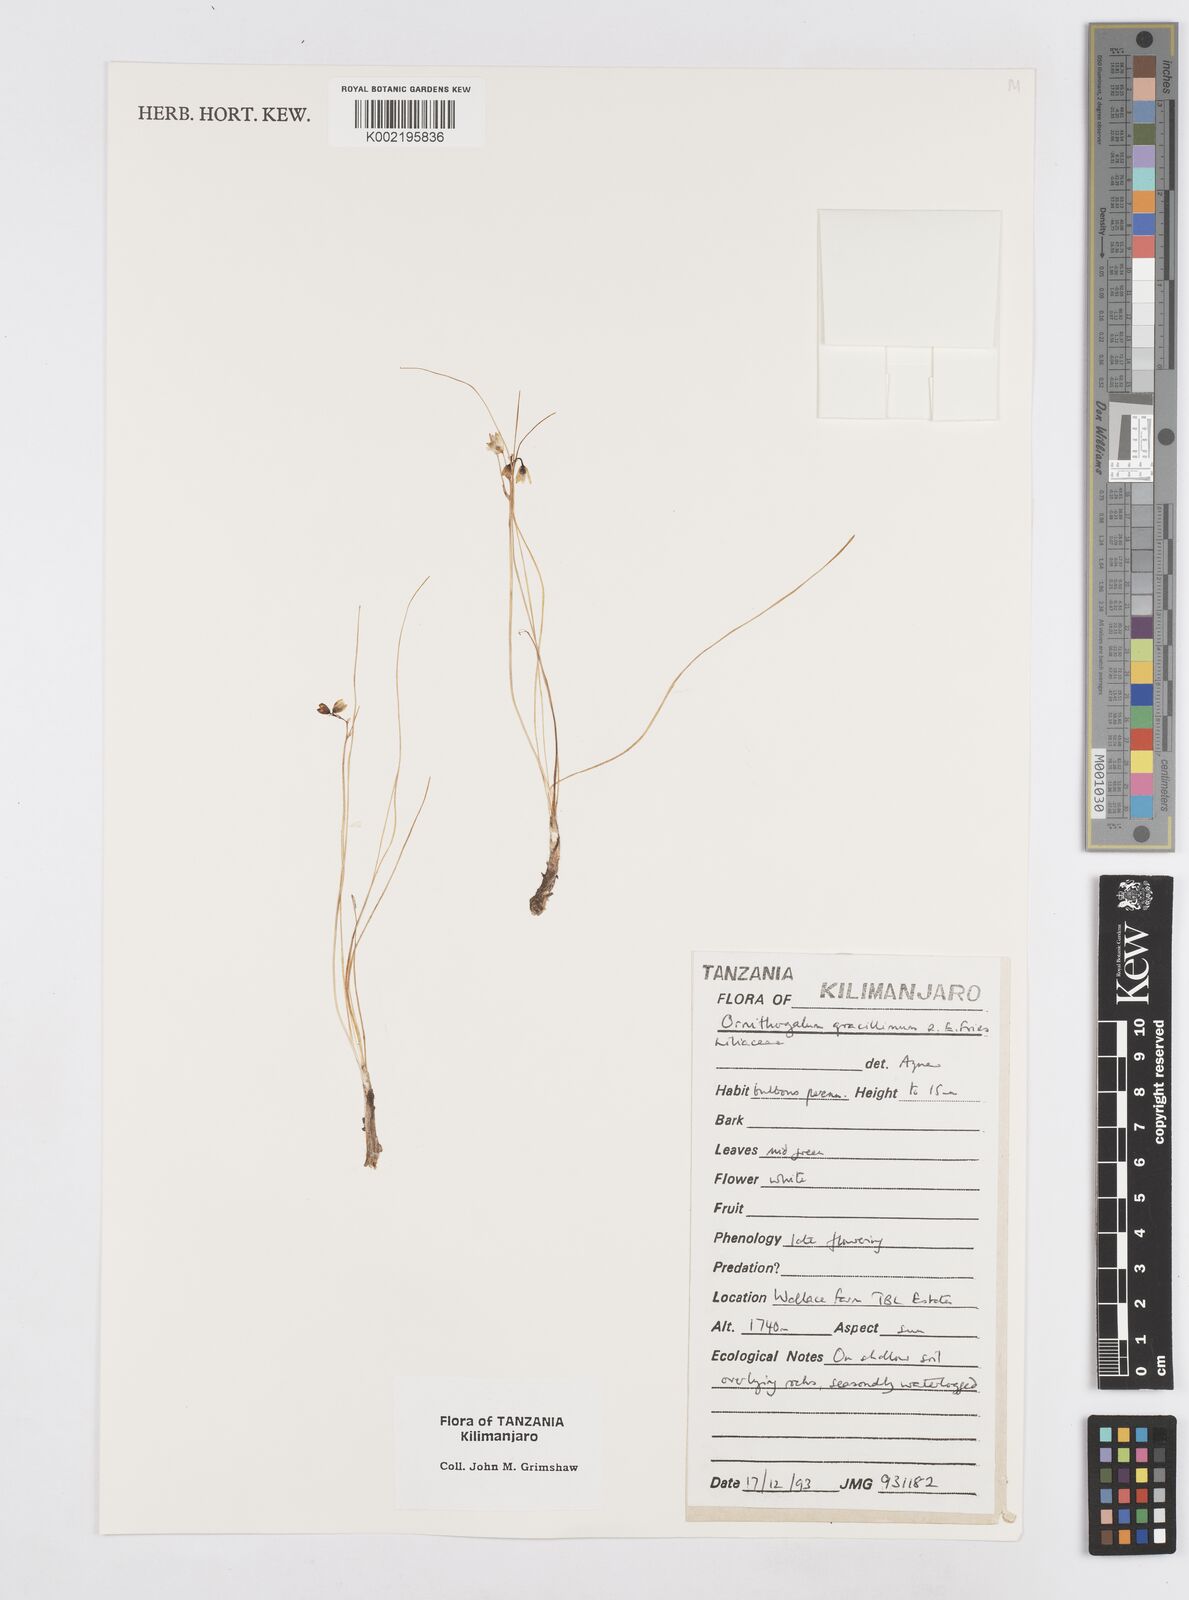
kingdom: Plantae
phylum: Tracheophyta
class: Liliopsida
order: Asparagales
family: Asparagaceae
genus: Ornithogalum
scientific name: Ornithogalum gracillimum
